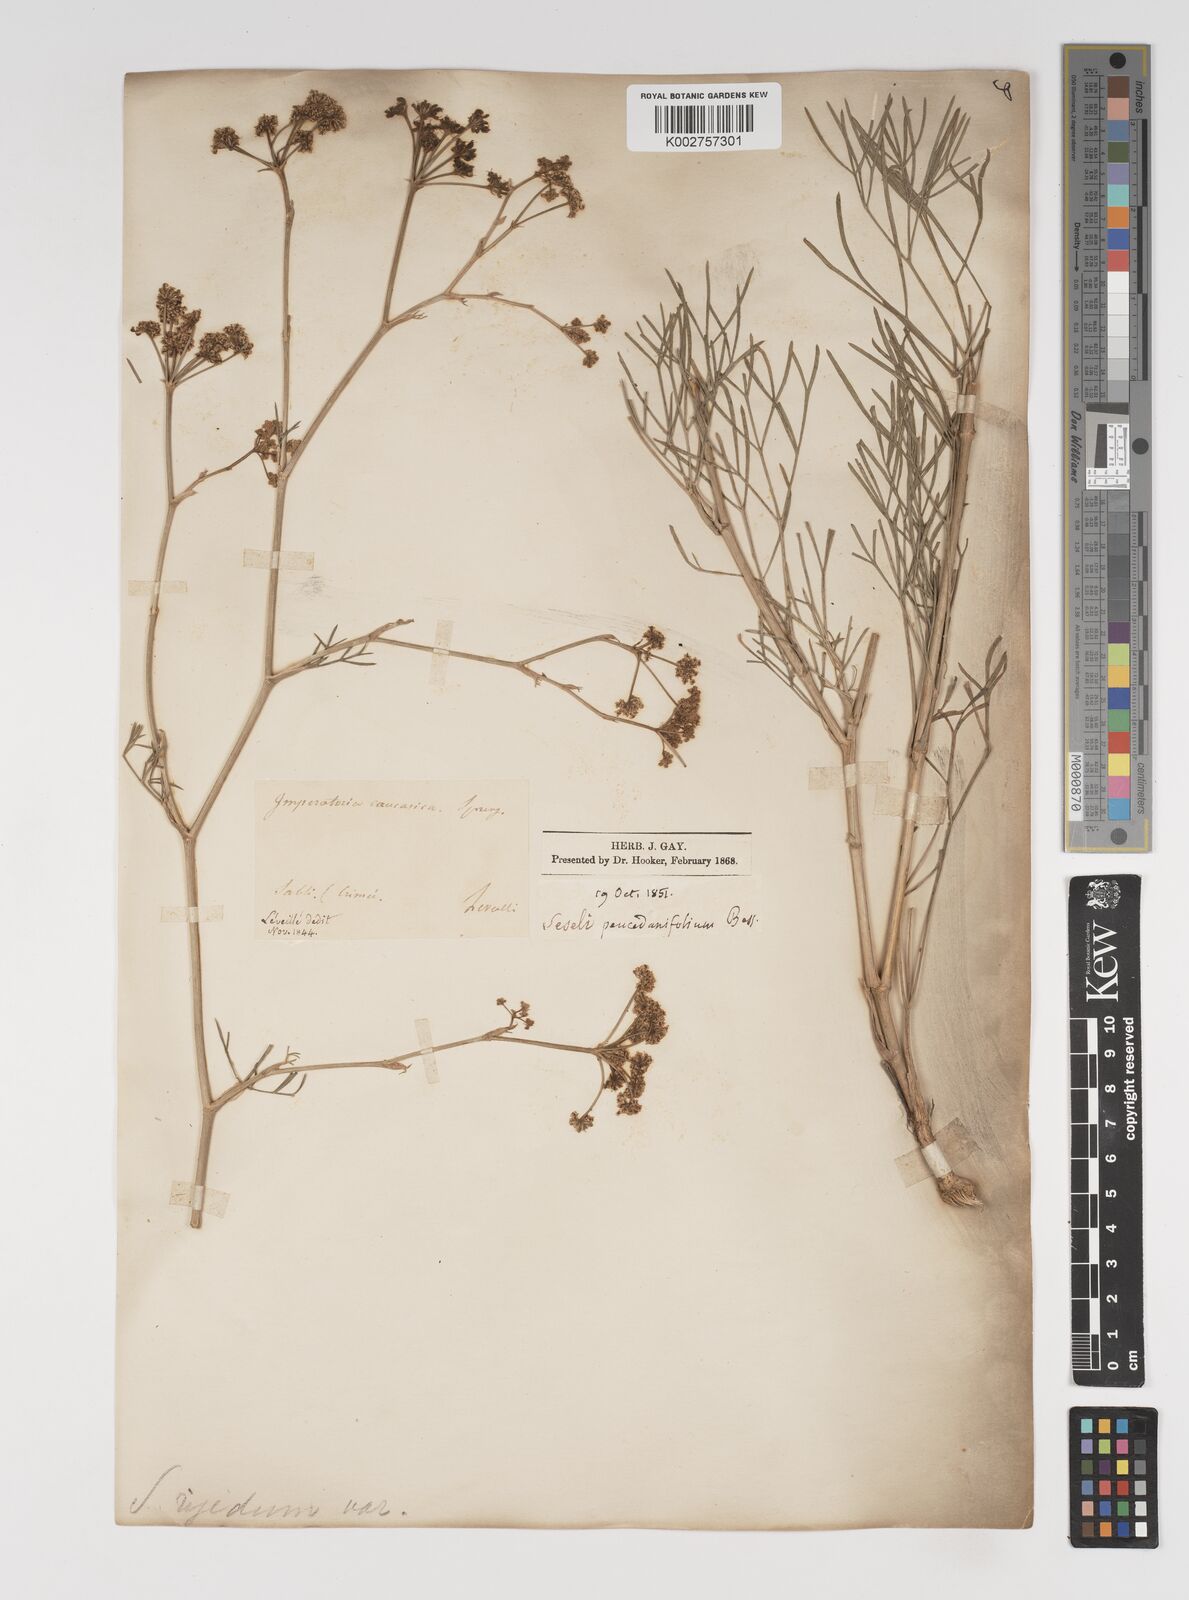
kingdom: Plantae
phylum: Tracheophyta
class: Magnoliopsida
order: Apiales
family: Apiaceae
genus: Seseli
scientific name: Seseli besserianum
